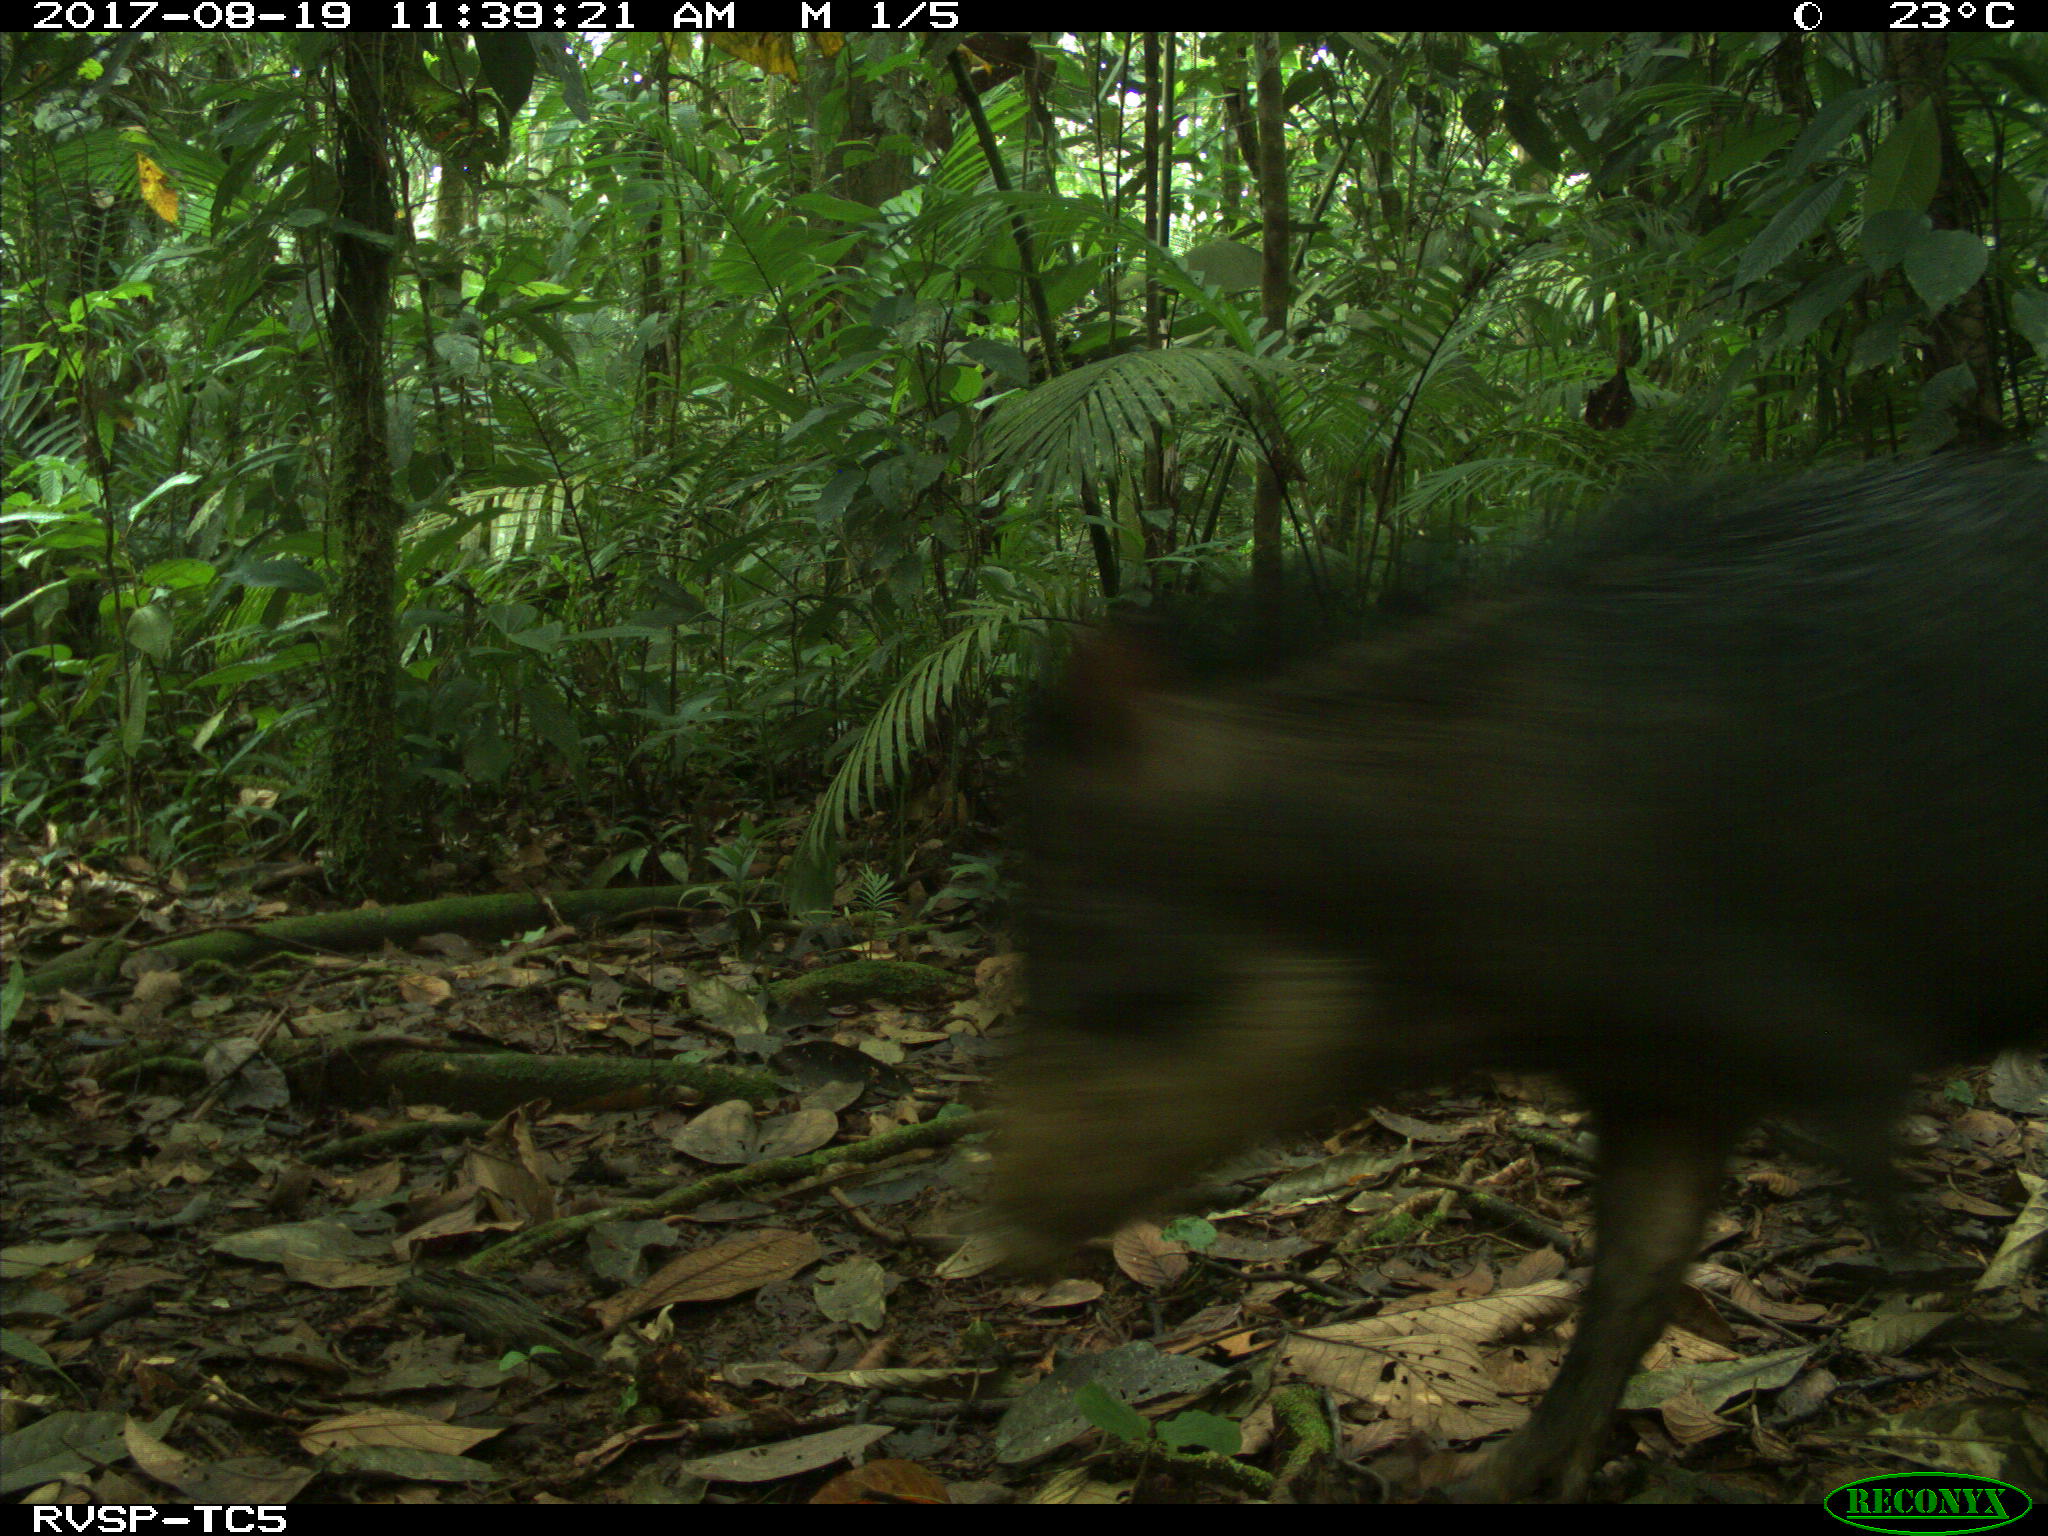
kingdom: Animalia
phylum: Chordata
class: Mammalia
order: Artiodactyla
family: Tayassuidae
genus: Tayassu
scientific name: Tayassu pecari
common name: White-lipped peccary
